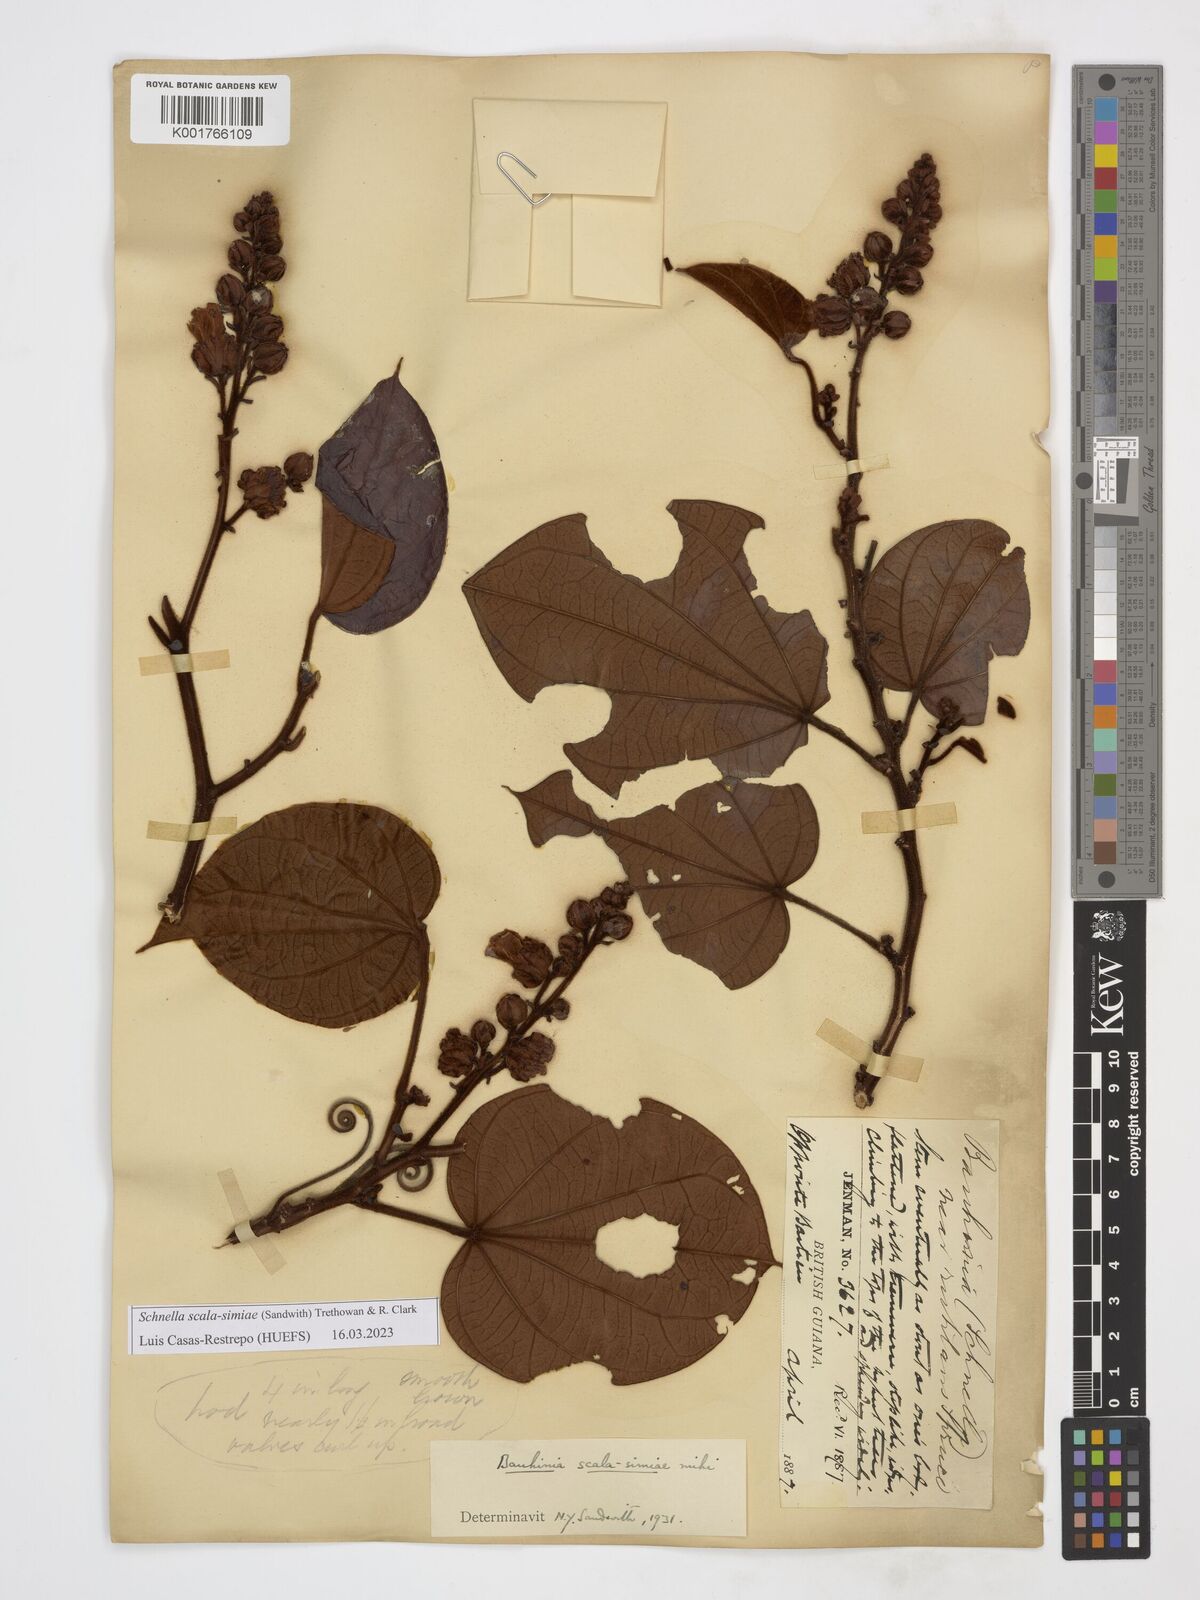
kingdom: Plantae
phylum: Tracheophyta
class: Magnoliopsida
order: Fabales
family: Fabaceae
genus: Schnella
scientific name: Schnella scala-simiae
